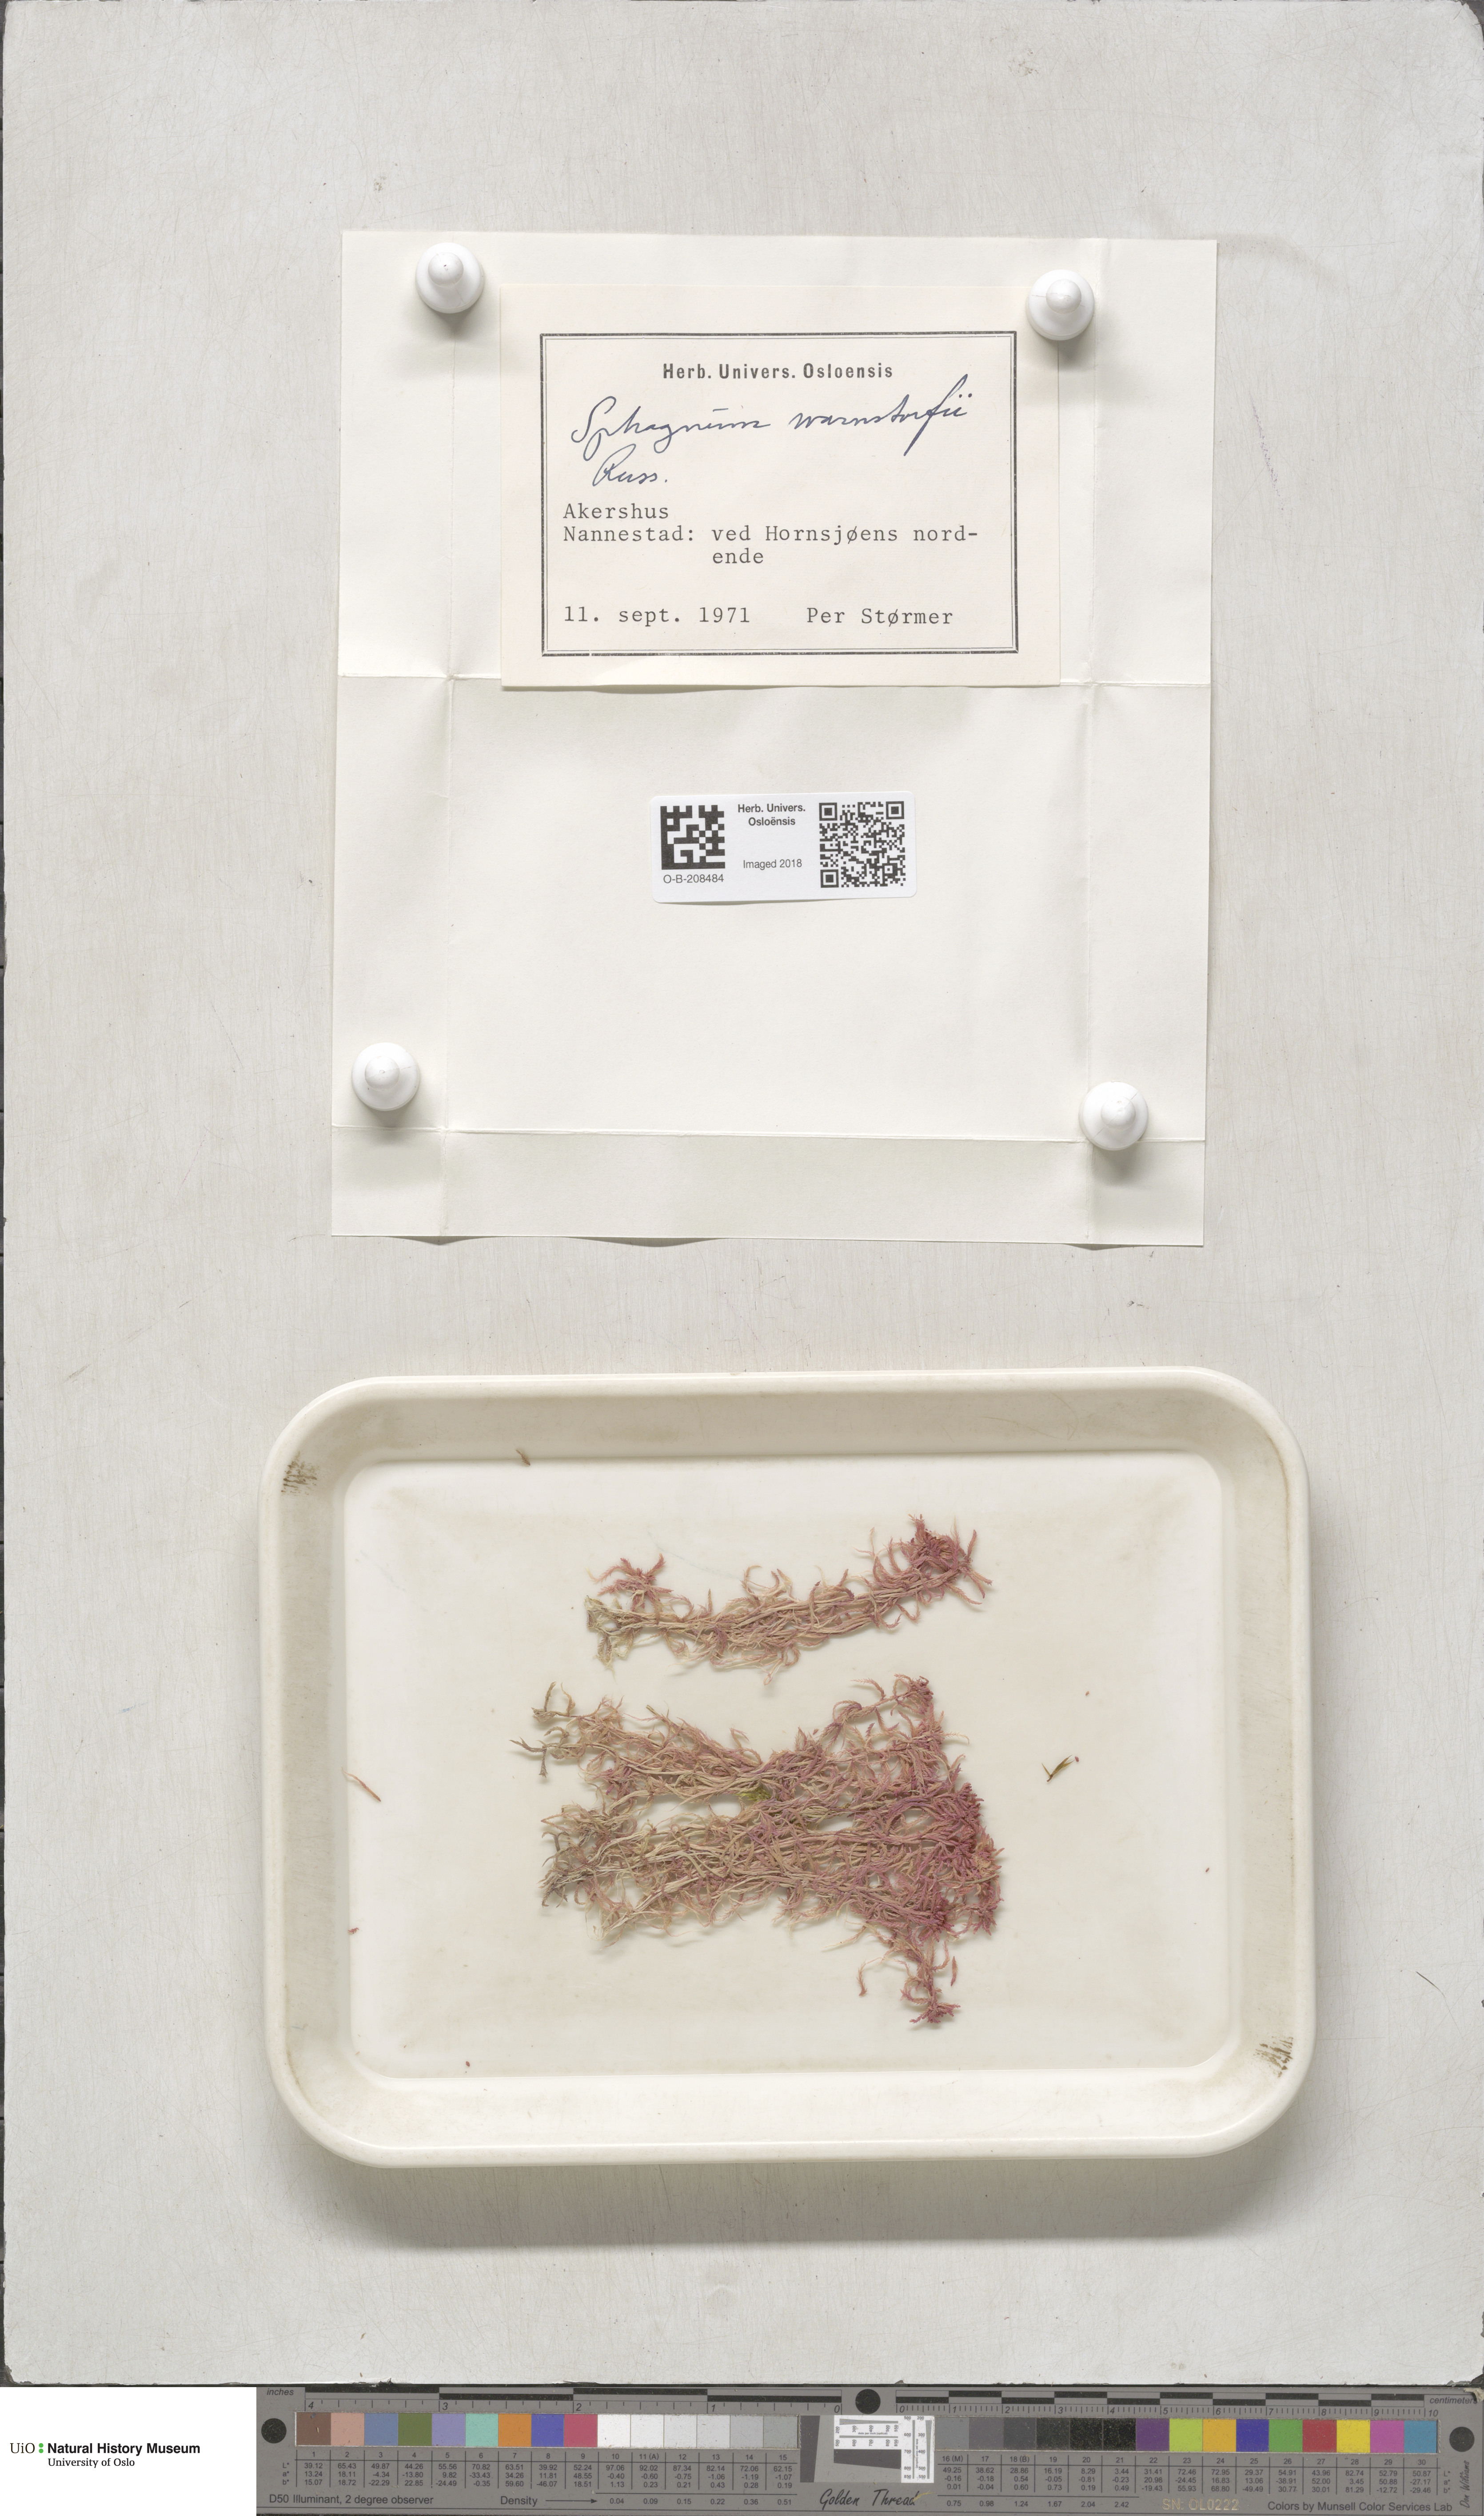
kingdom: Plantae
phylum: Bryophyta
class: Sphagnopsida
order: Sphagnales
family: Sphagnaceae
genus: Sphagnum
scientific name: Sphagnum warnstorfii
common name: Warnstorf's peat moss
